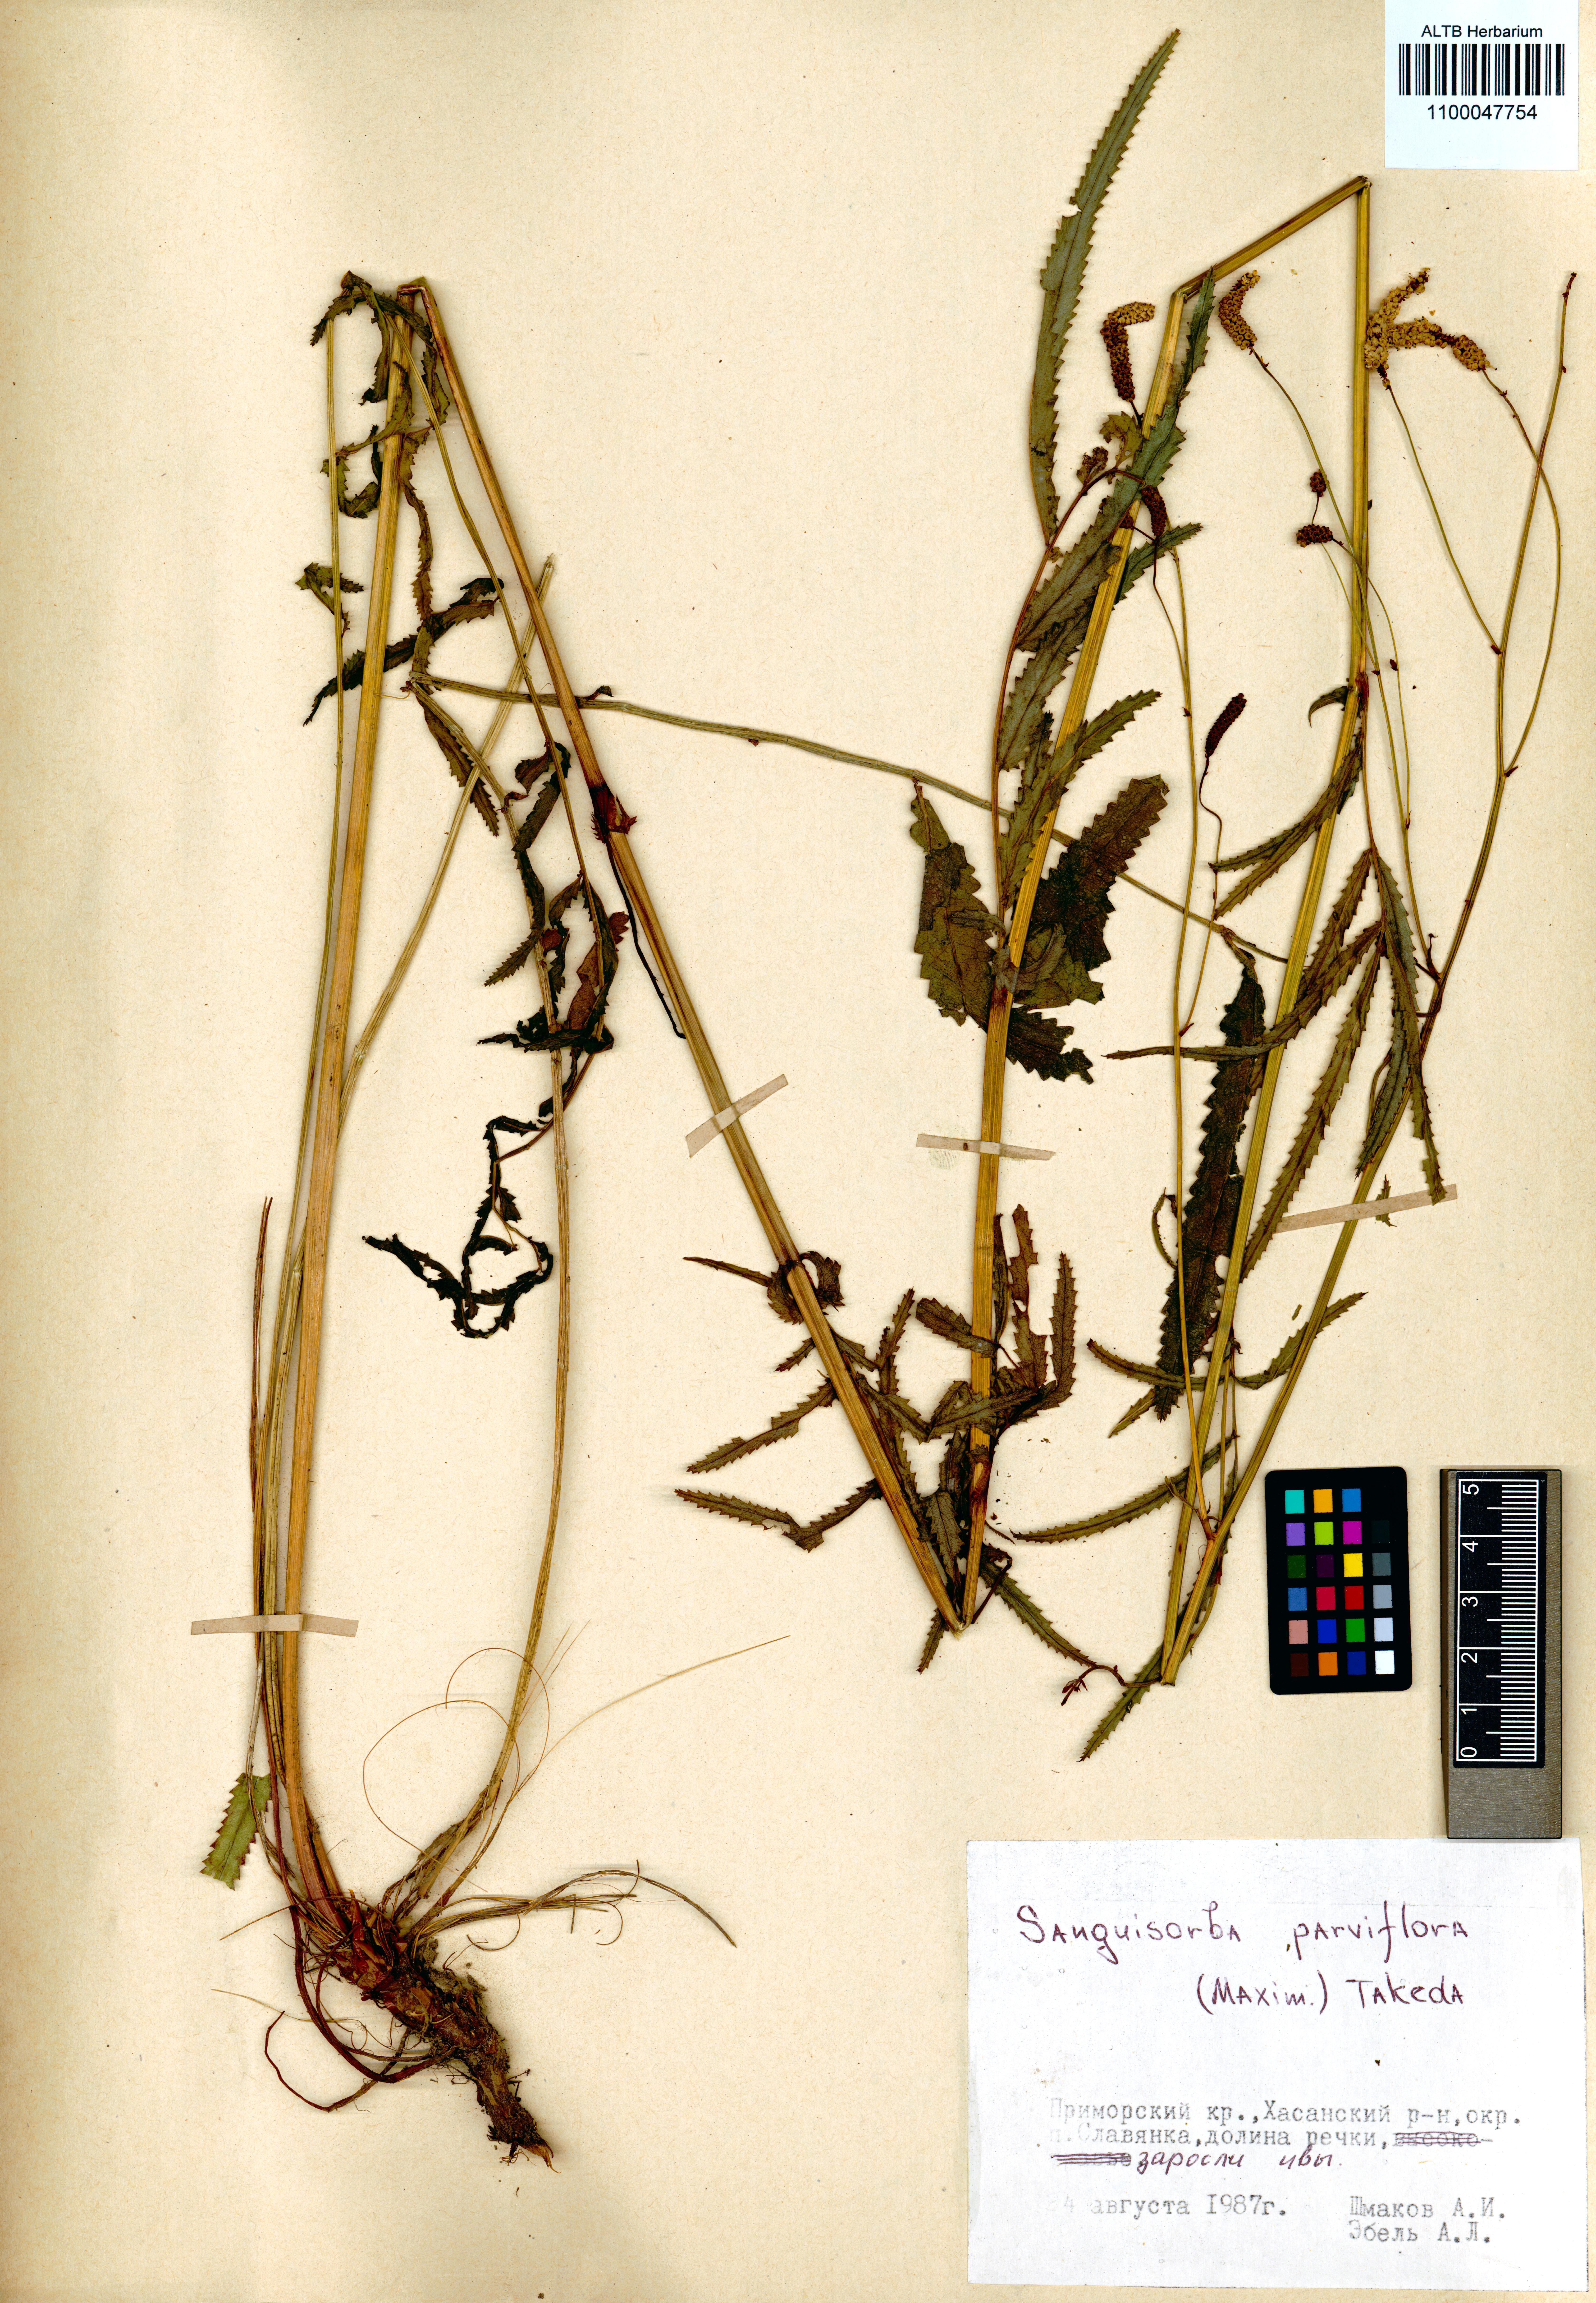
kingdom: Plantae
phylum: Tracheophyta
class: Magnoliopsida
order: Rosales
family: Rosaceae
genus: Poterium
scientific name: Poterium tenuifolium
